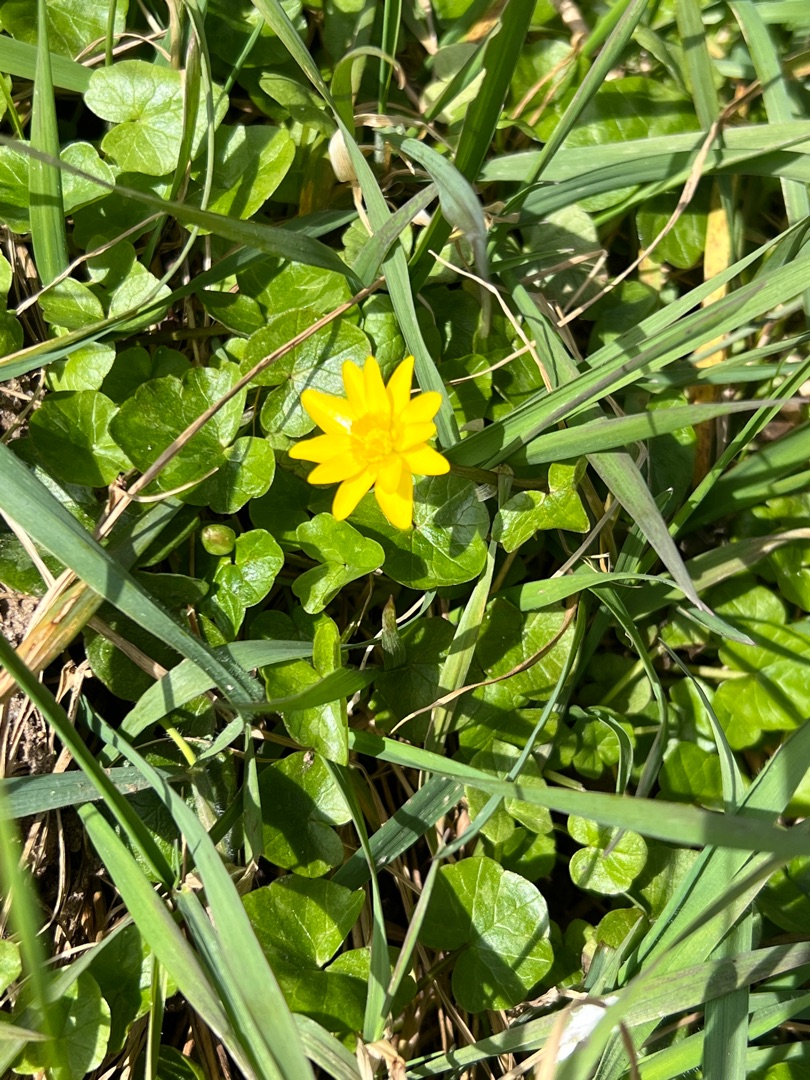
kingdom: Plantae
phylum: Tracheophyta
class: Magnoliopsida
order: Ranunculales
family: Ranunculaceae
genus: Ficaria
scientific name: Ficaria verna
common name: Vorterod
